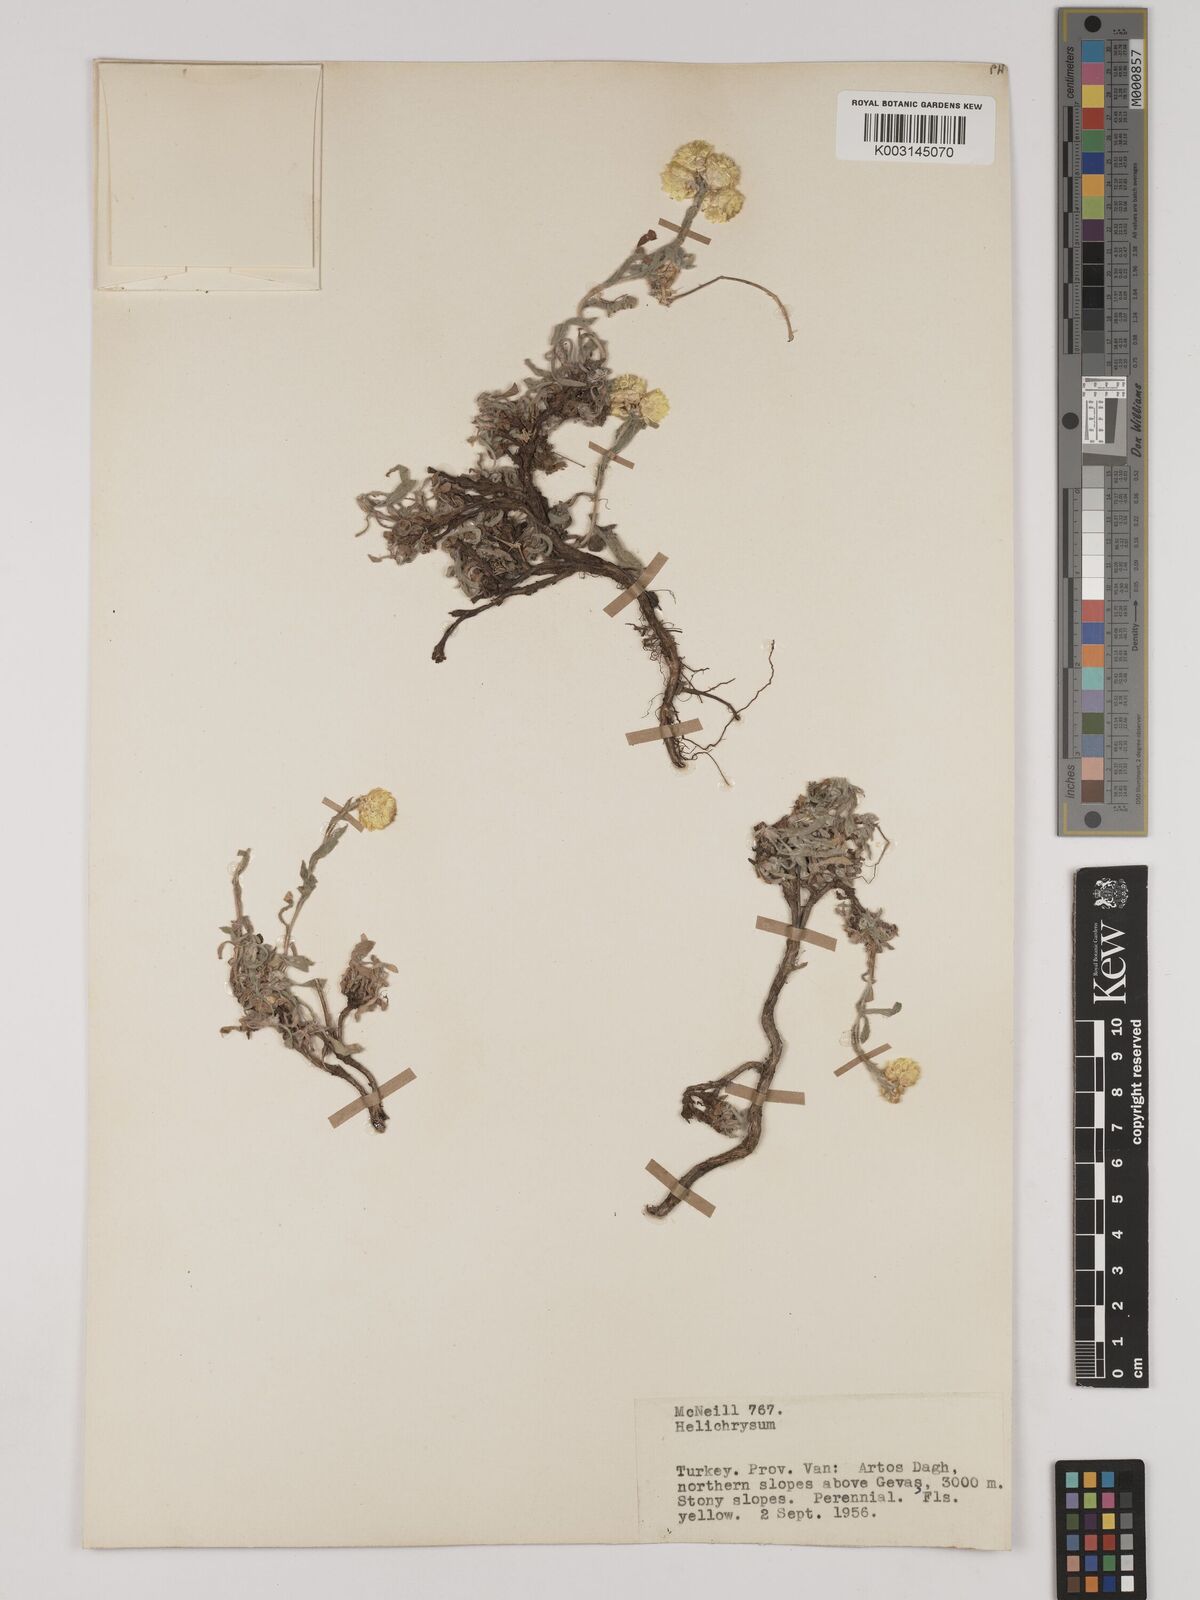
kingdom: Plantae
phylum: Tracheophyta
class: Magnoliopsida
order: Asterales
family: Asteraceae
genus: Helichrysum
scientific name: Helichrysum pallasii
